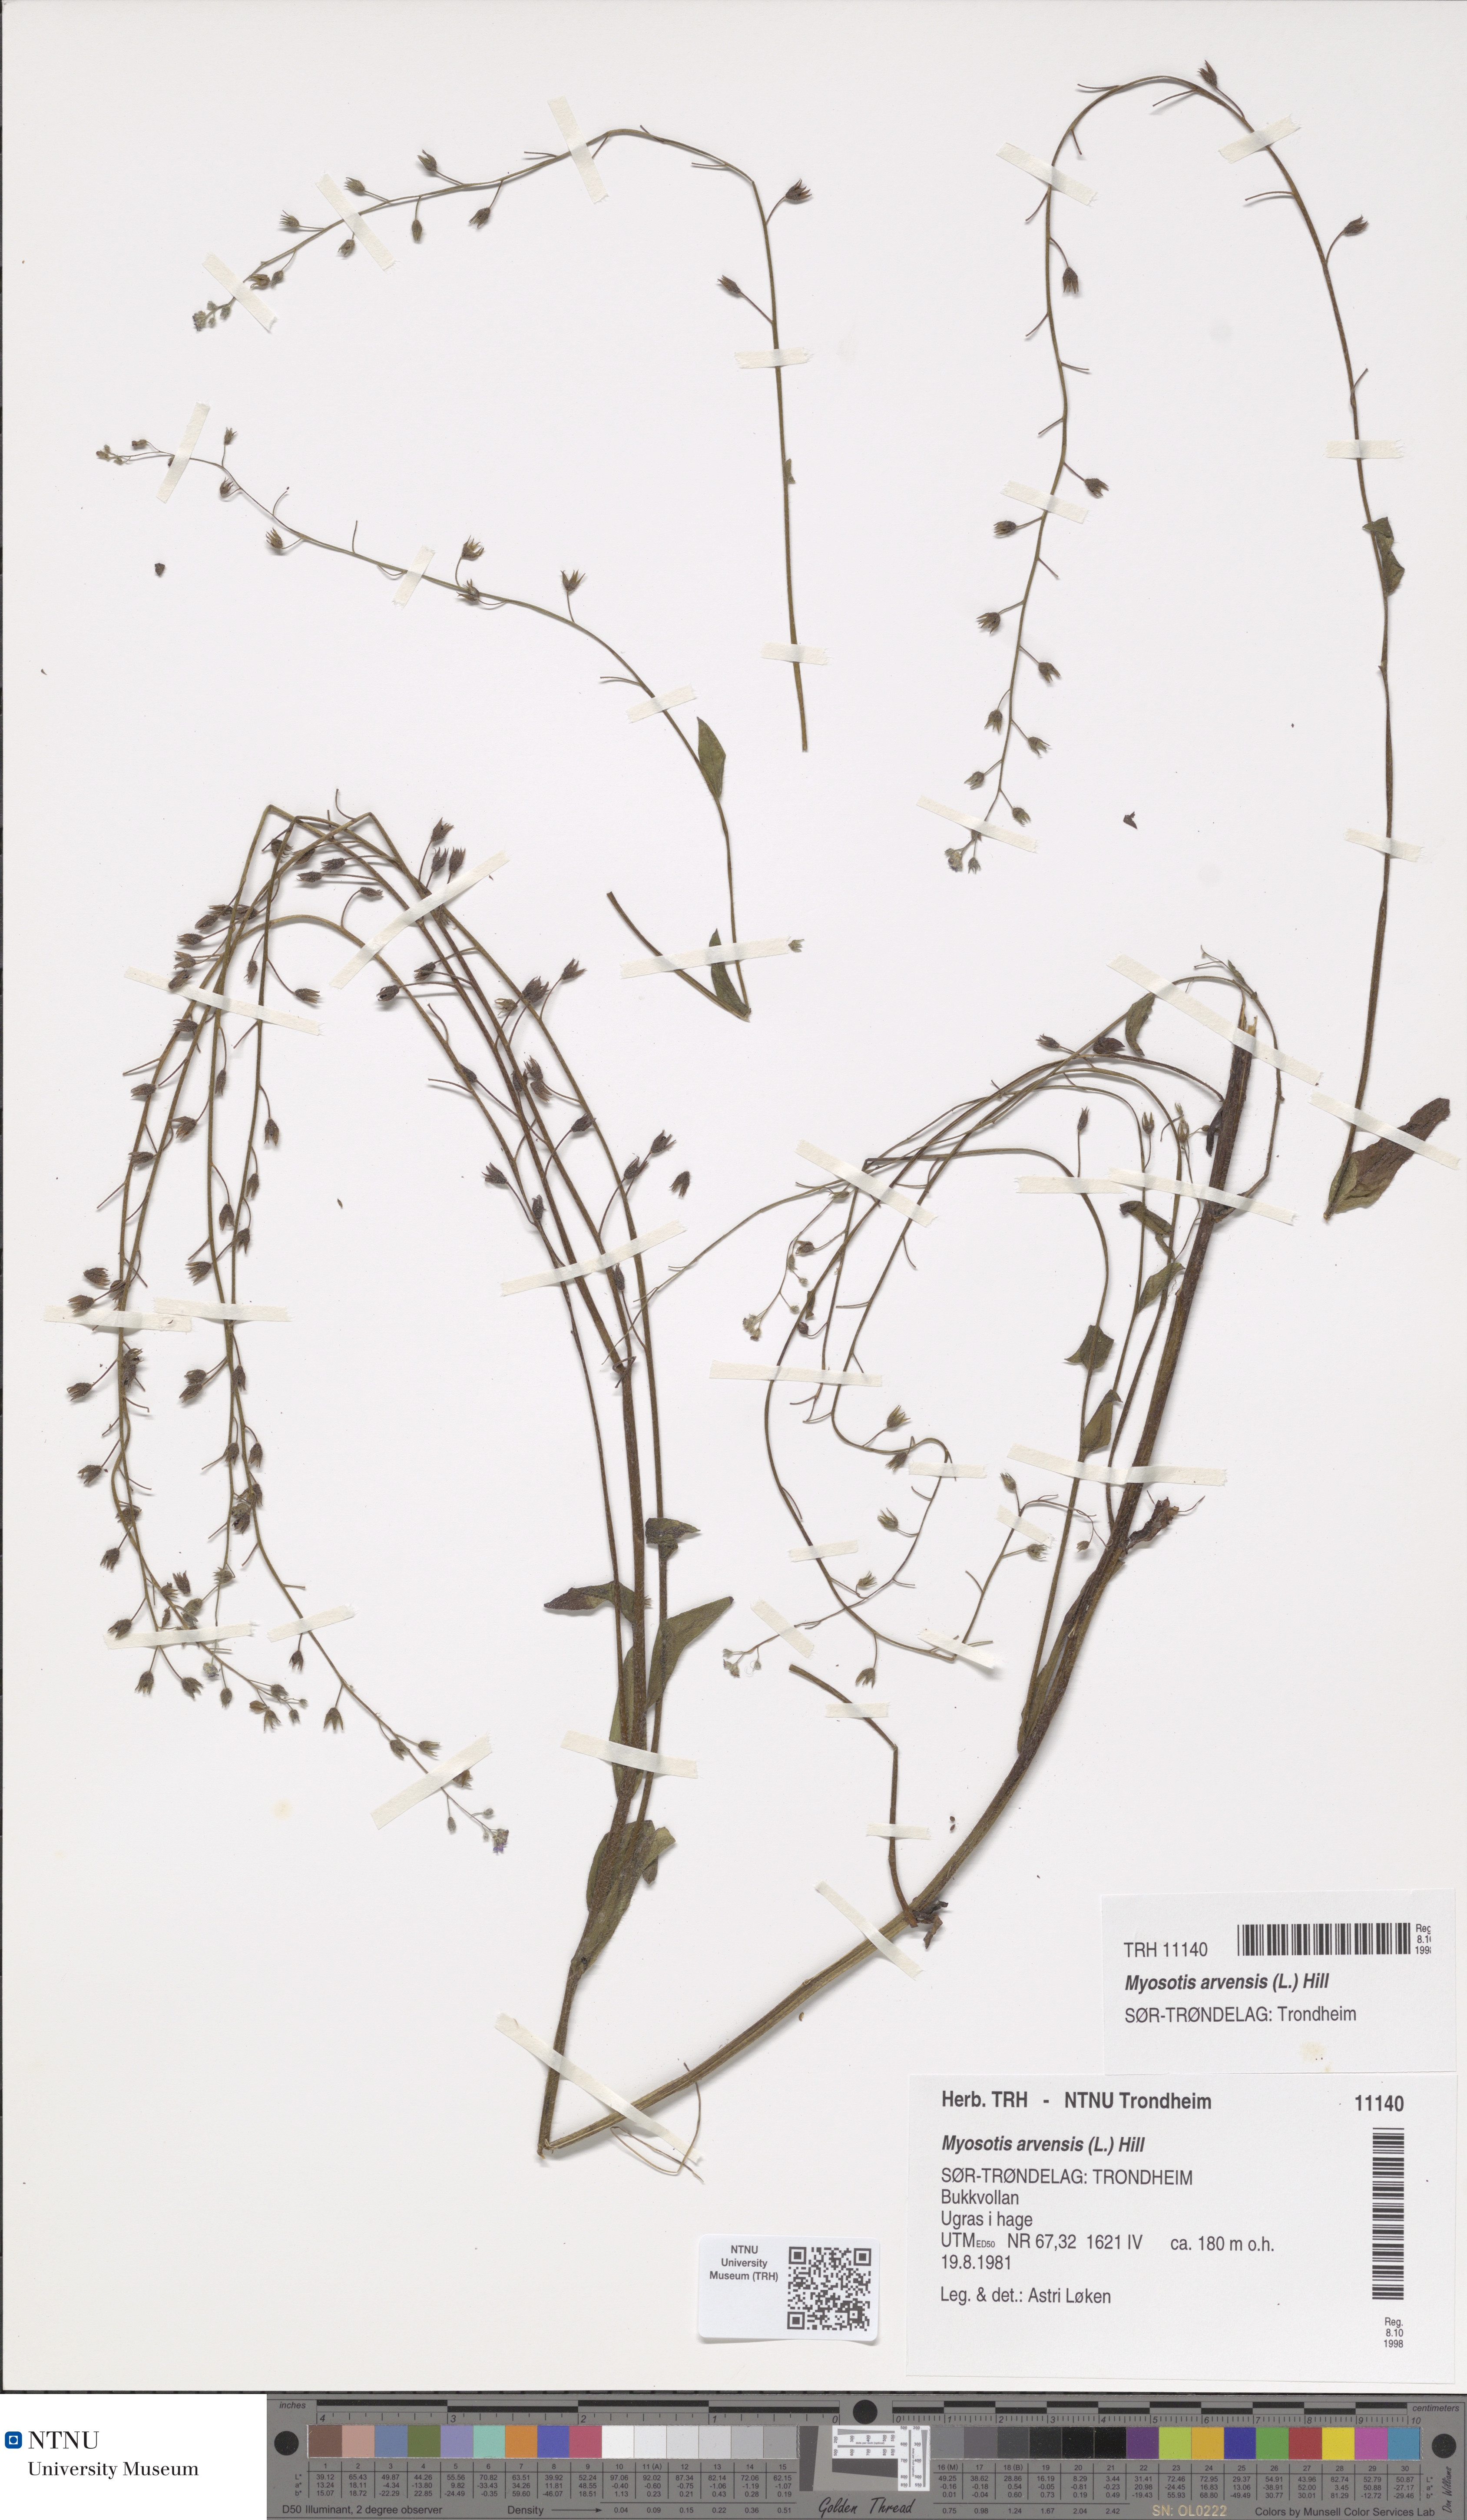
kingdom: Plantae
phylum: Tracheophyta
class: Magnoliopsida
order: Boraginales
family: Boraginaceae
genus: Myosotis
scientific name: Myosotis arvensis
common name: Field forget-me-not
